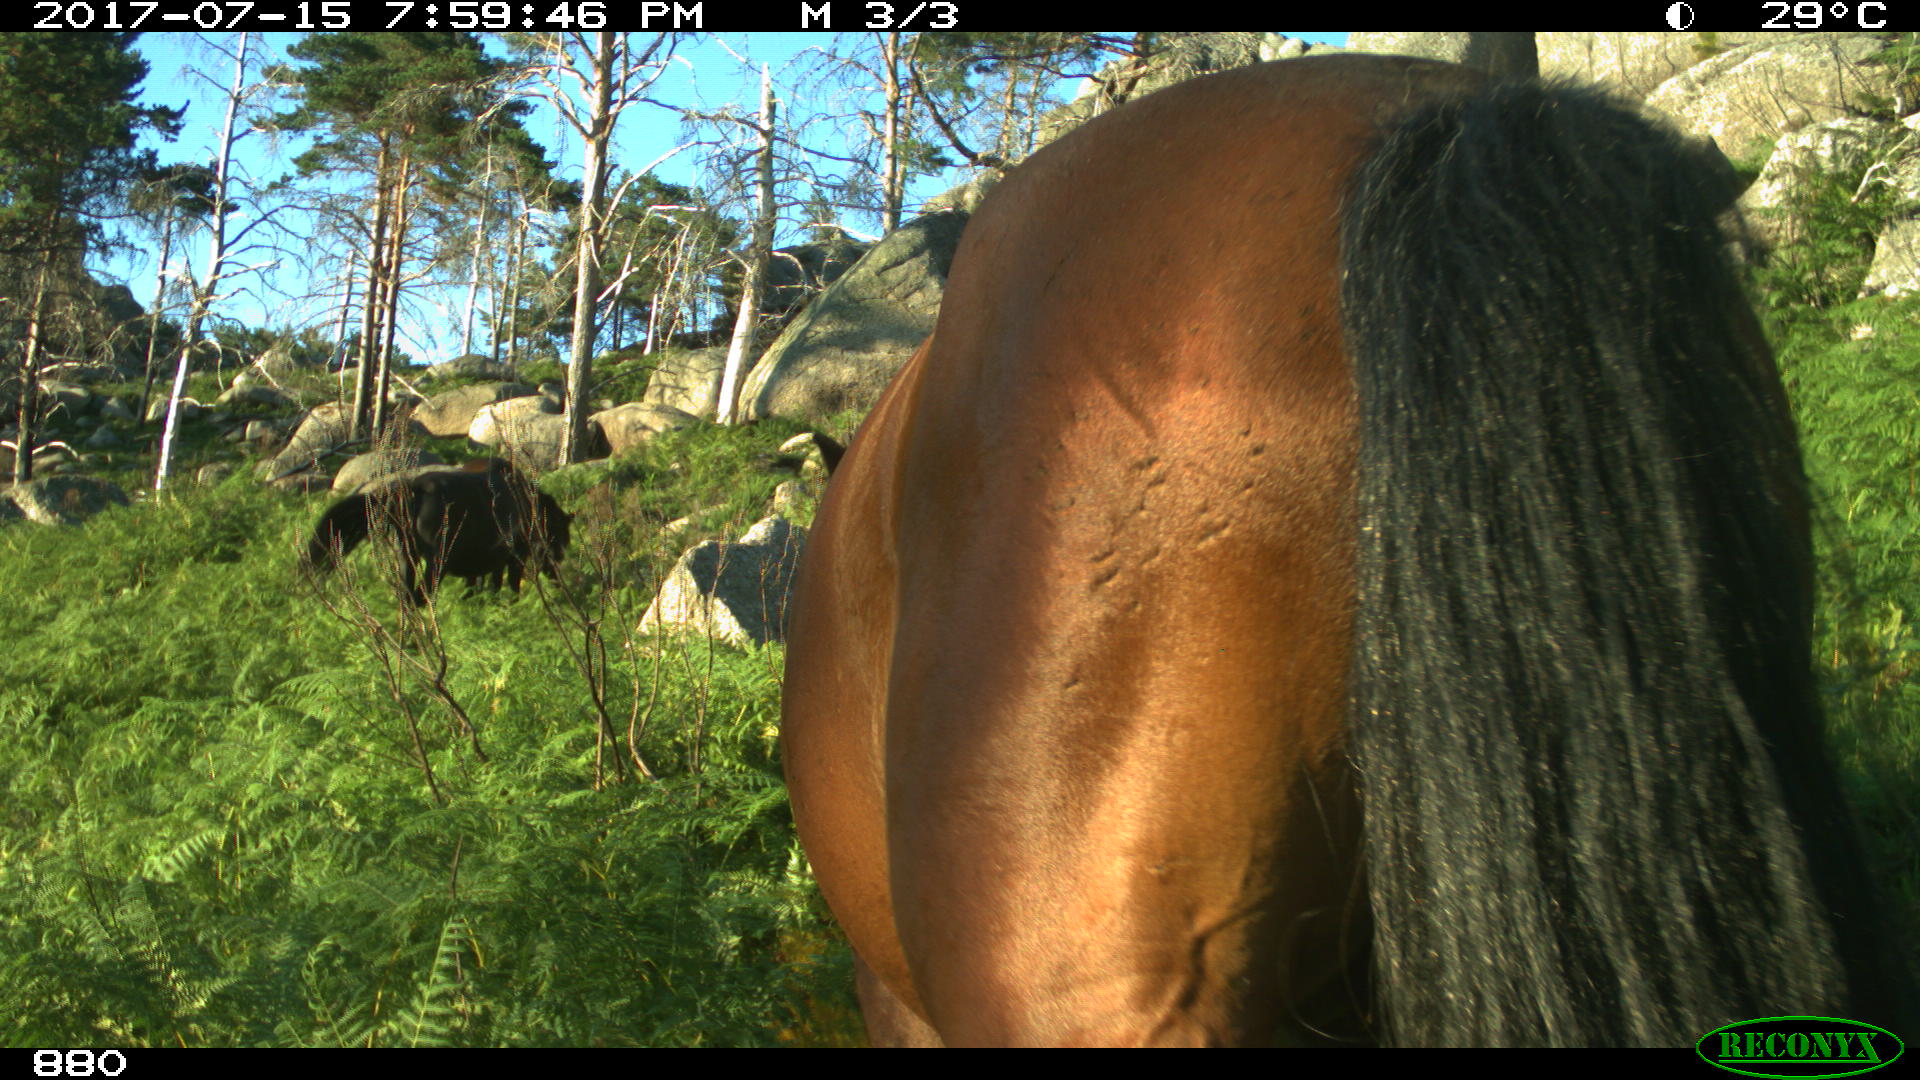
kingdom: Animalia
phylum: Chordata
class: Mammalia
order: Perissodactyla
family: Equidae
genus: Equus
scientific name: Equus caballus
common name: Horse
